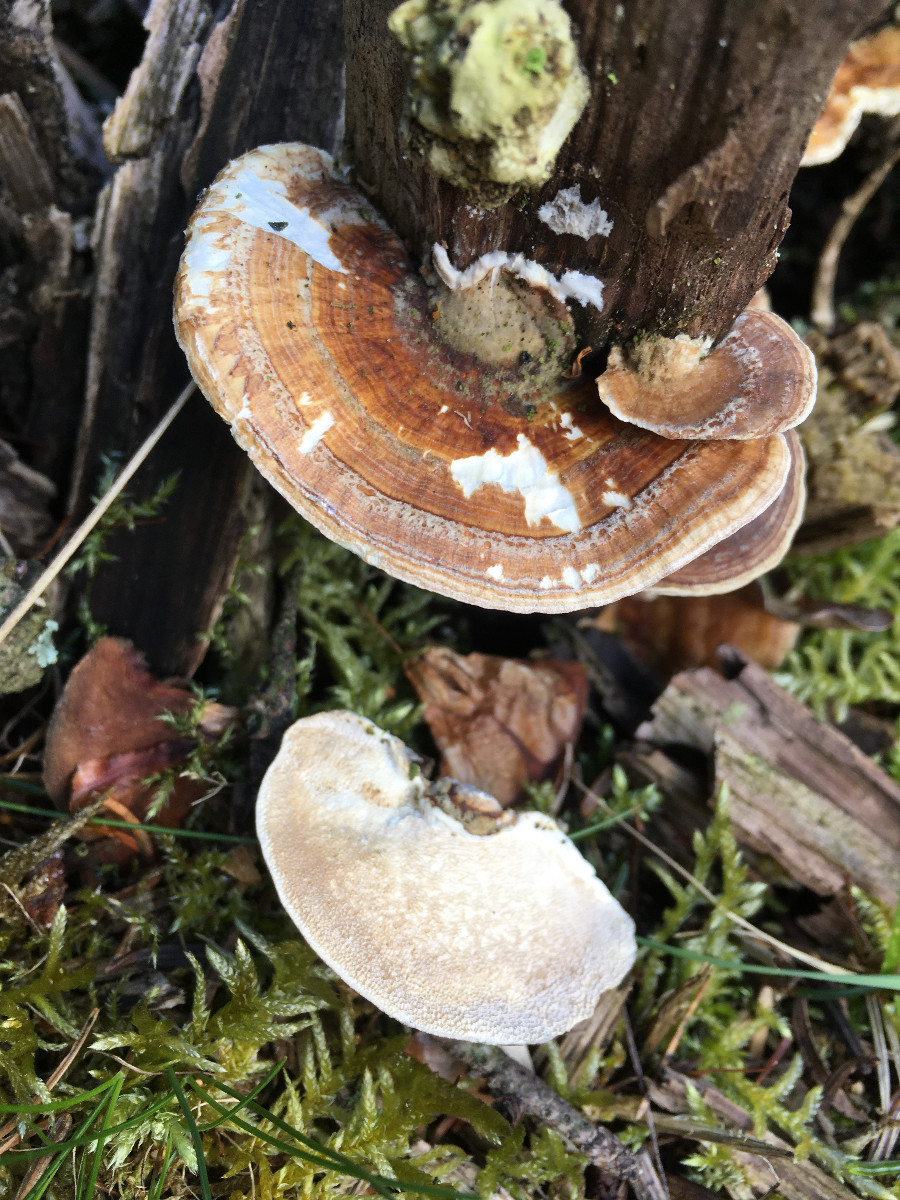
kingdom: Fungi
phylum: Basidiomycota
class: Agaricomycetes
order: Polyporales
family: Polyporaceae
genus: Daedaleopsis
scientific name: Daedaleopsis confragosa
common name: rødmende læderporesvamp
